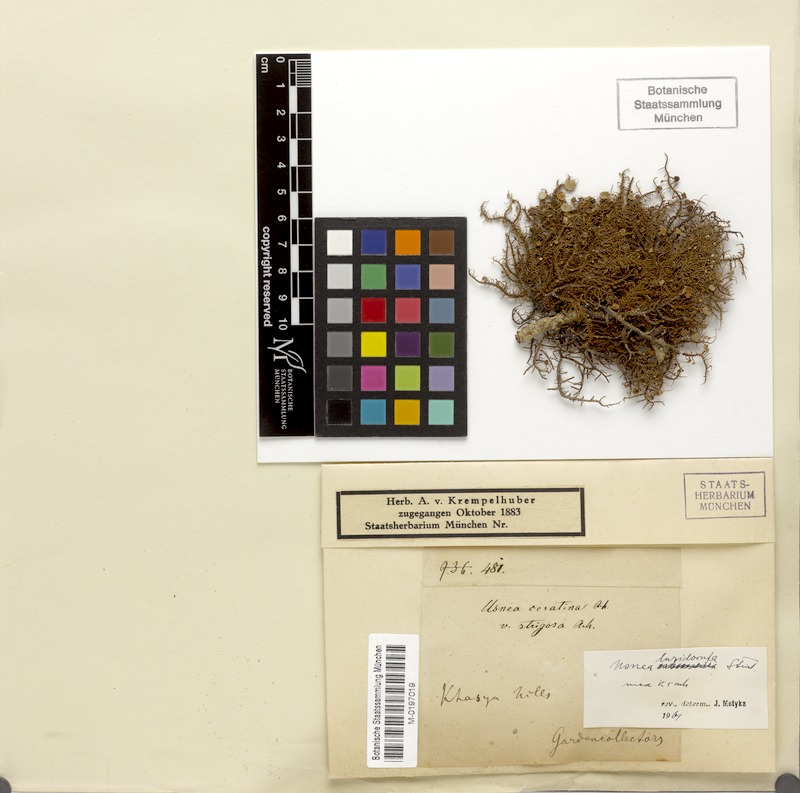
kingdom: Fungi
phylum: Ascomycota
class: Lecanoromycetes
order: Lecanorales
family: Parmeliaceae
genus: Usnea
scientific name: Usnea luridorufa
